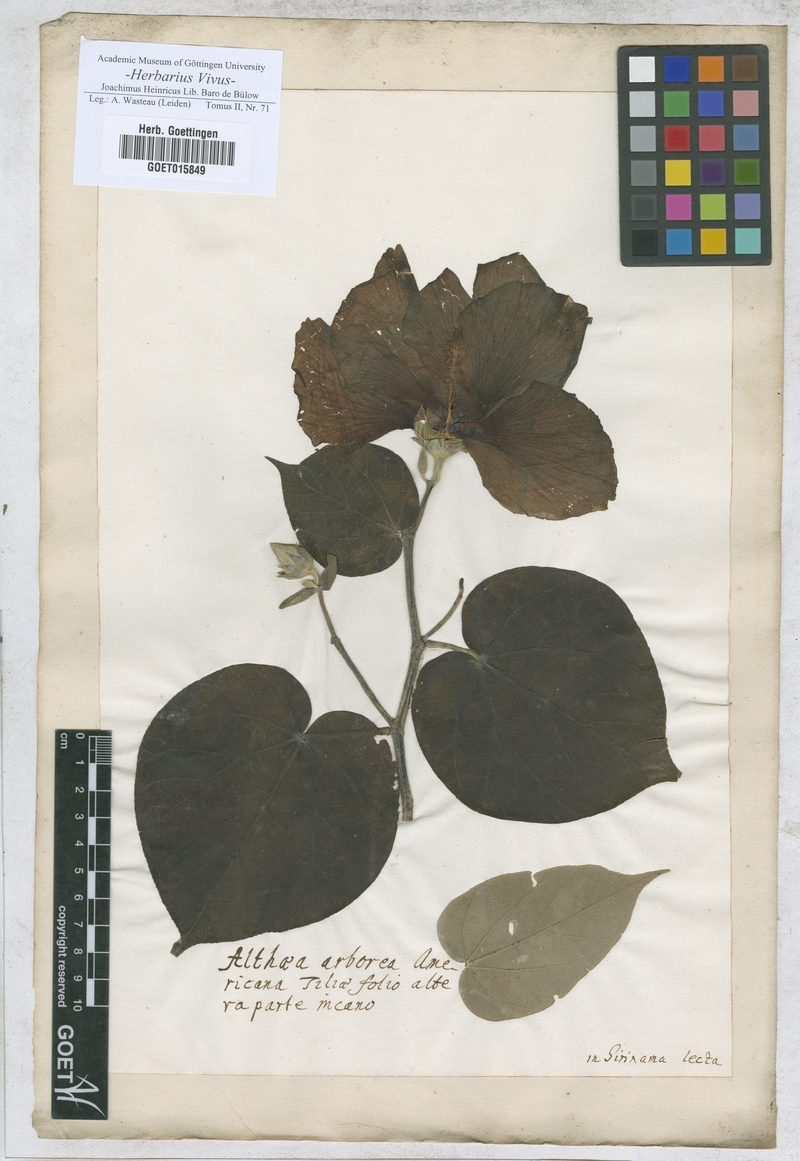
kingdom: Plantae
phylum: Tracheophyta
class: Magnoliopsida
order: Malvales
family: Malvaceae
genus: Althaea
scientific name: Althaea
